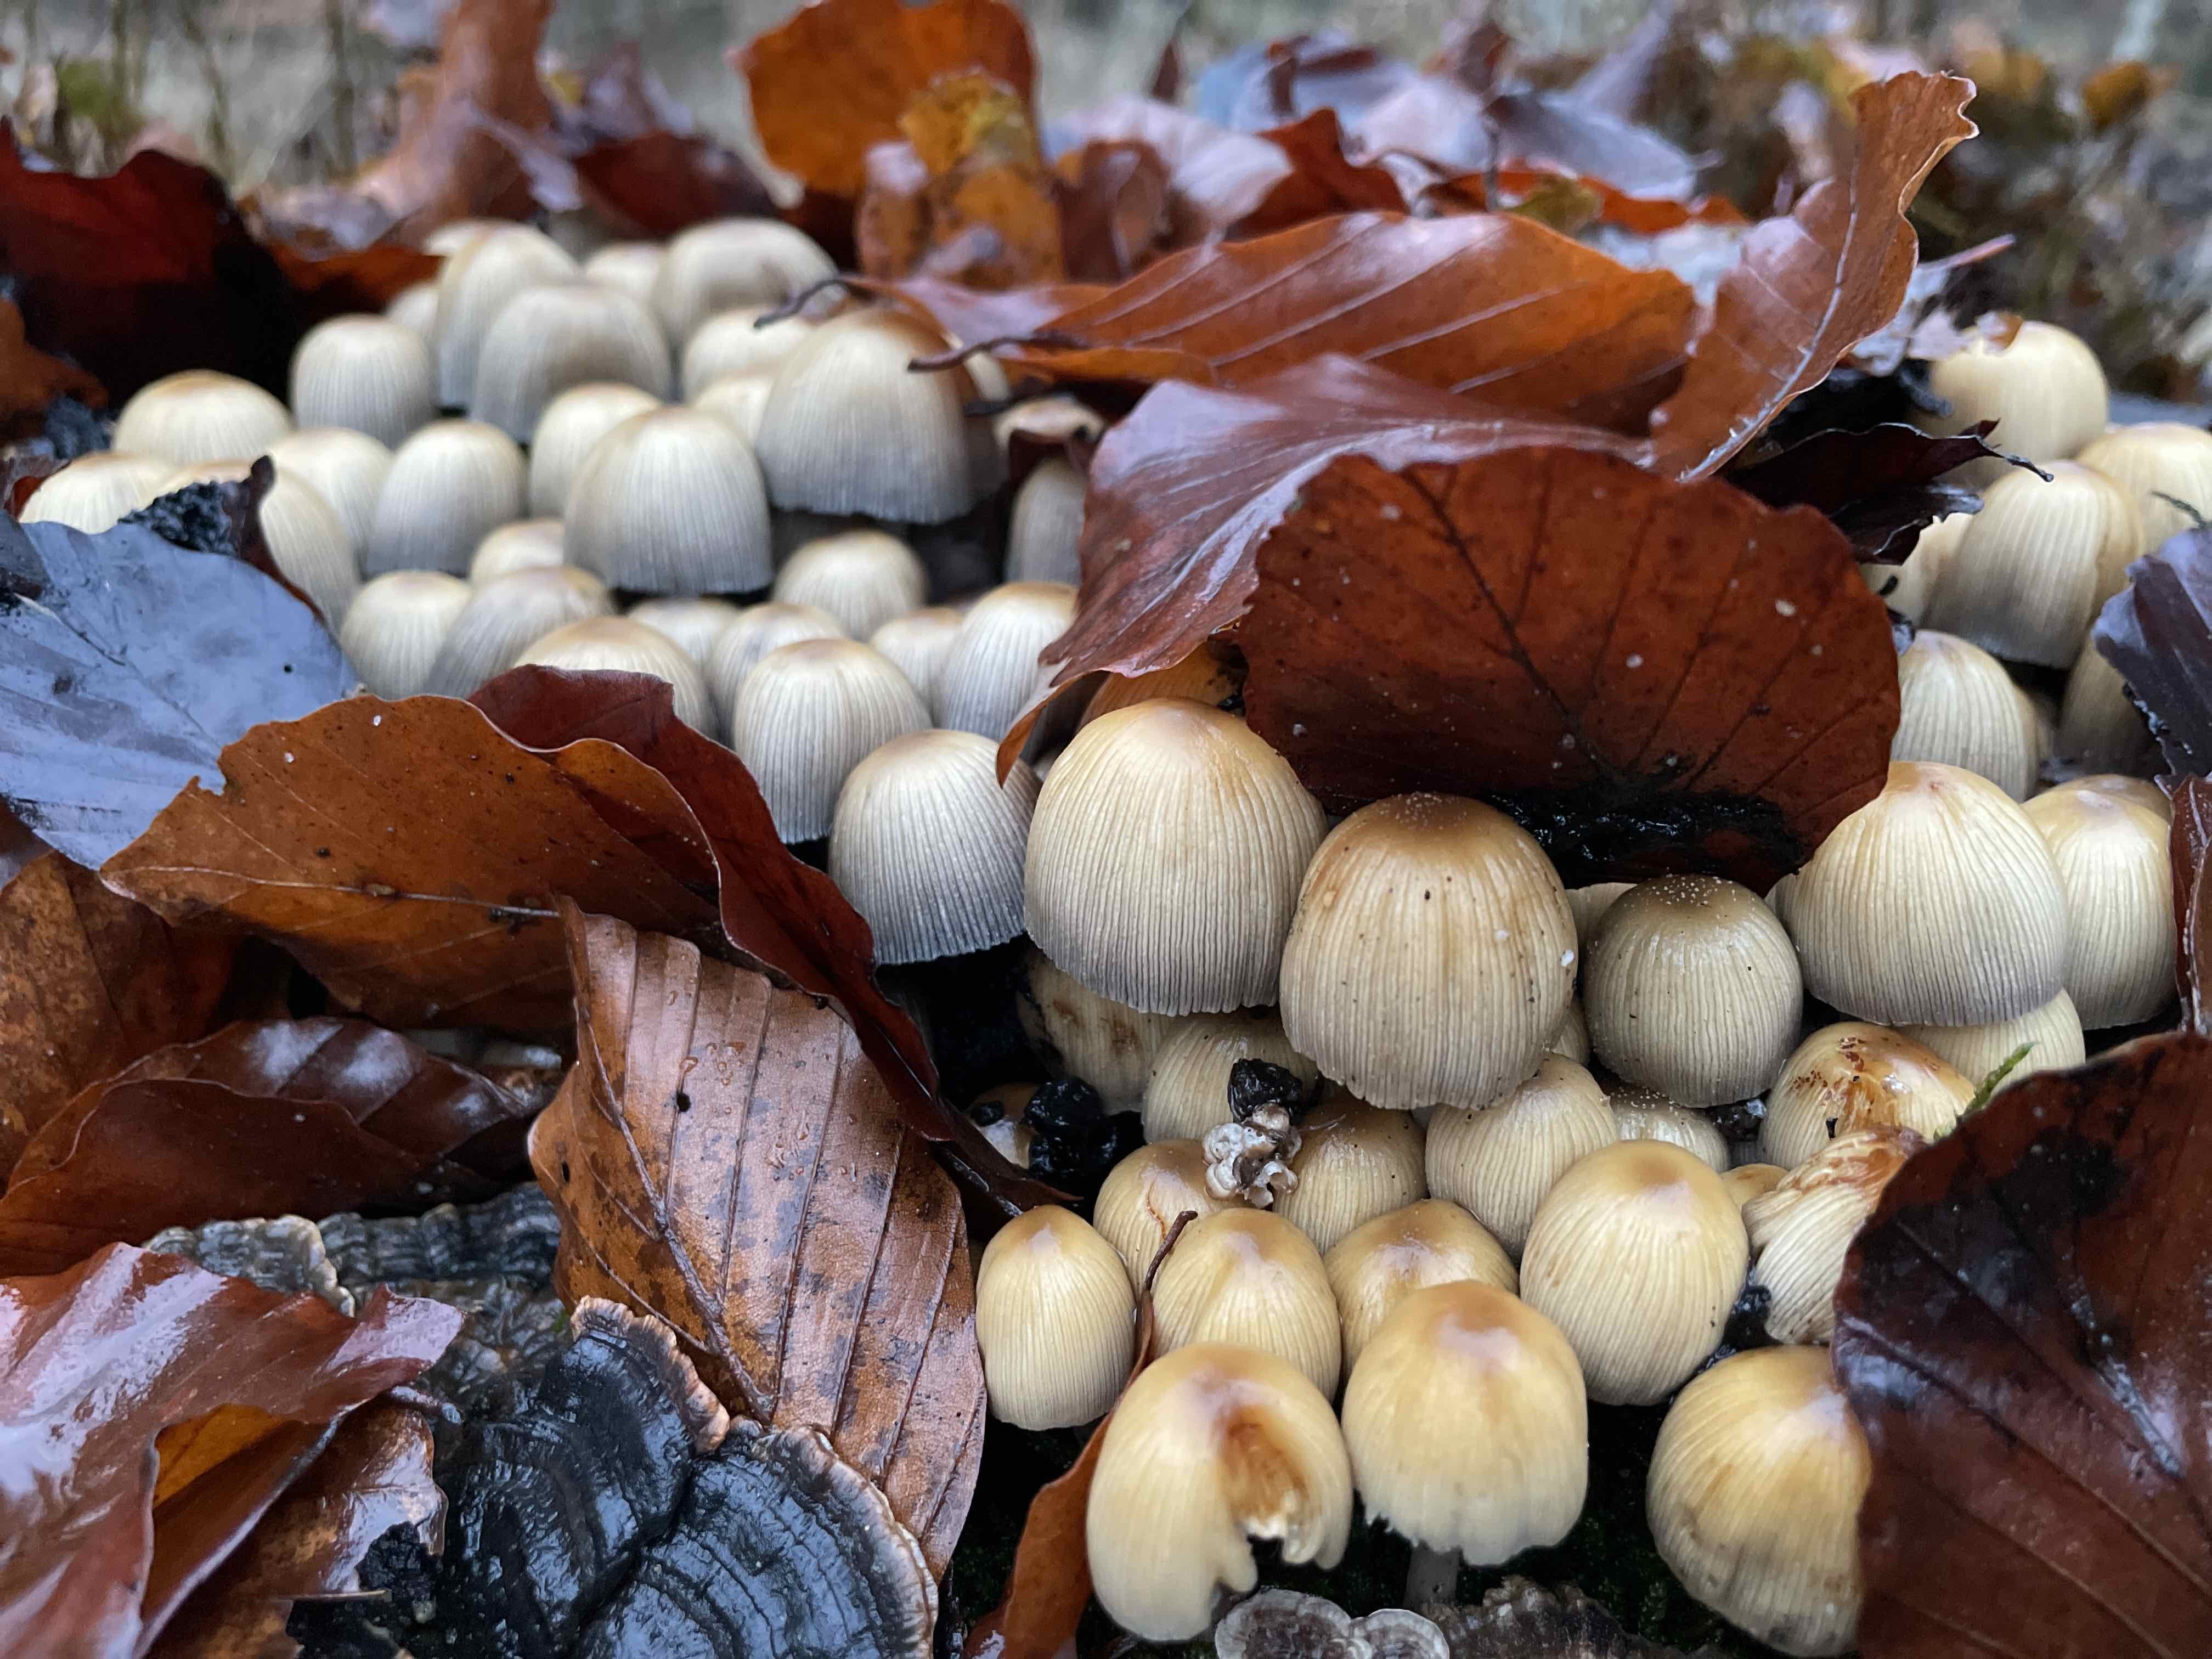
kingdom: Fungi
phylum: Basidiomycota
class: Agaricomycetes
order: Agaricales
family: Psathyrellaceae
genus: Coprinellus
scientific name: Coprinellus micaceus
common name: glimmer-blækhat
